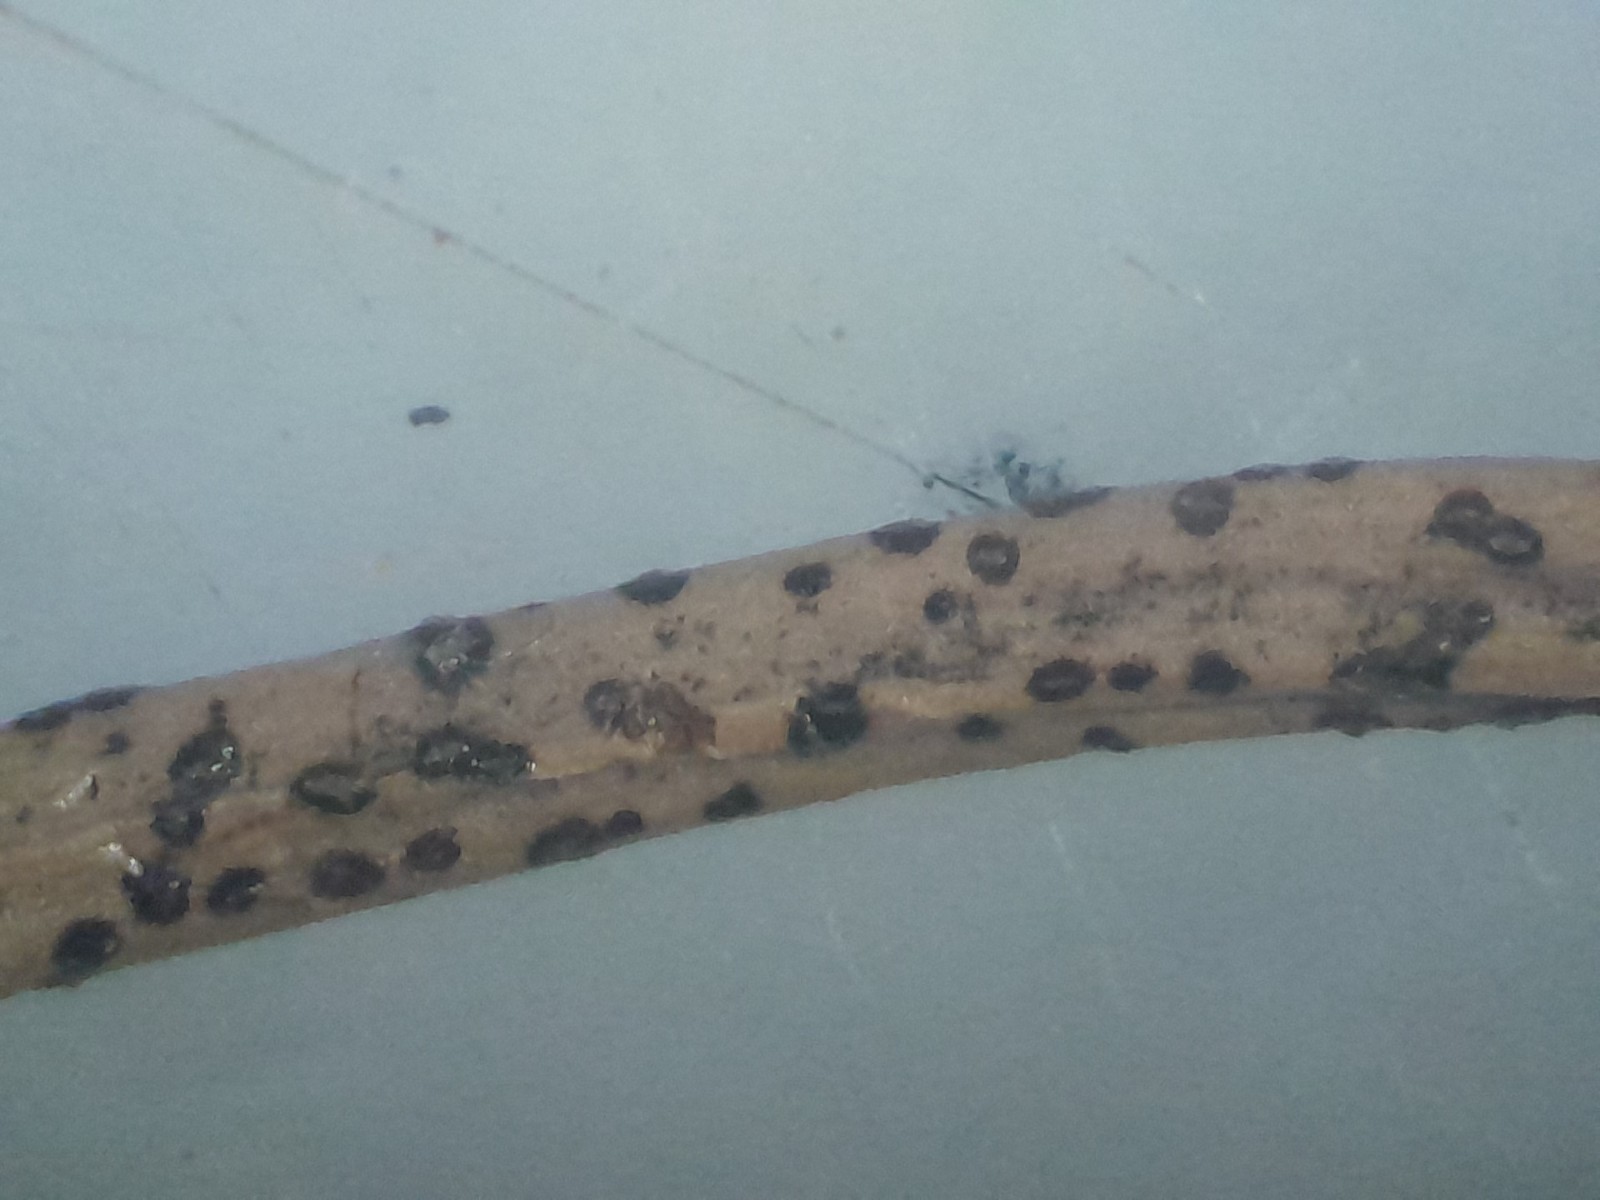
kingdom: Fungi
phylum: Ascomycota
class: Leotiomycetes
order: Helotiales
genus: Cryptocline
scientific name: Cryptocline taxicola
